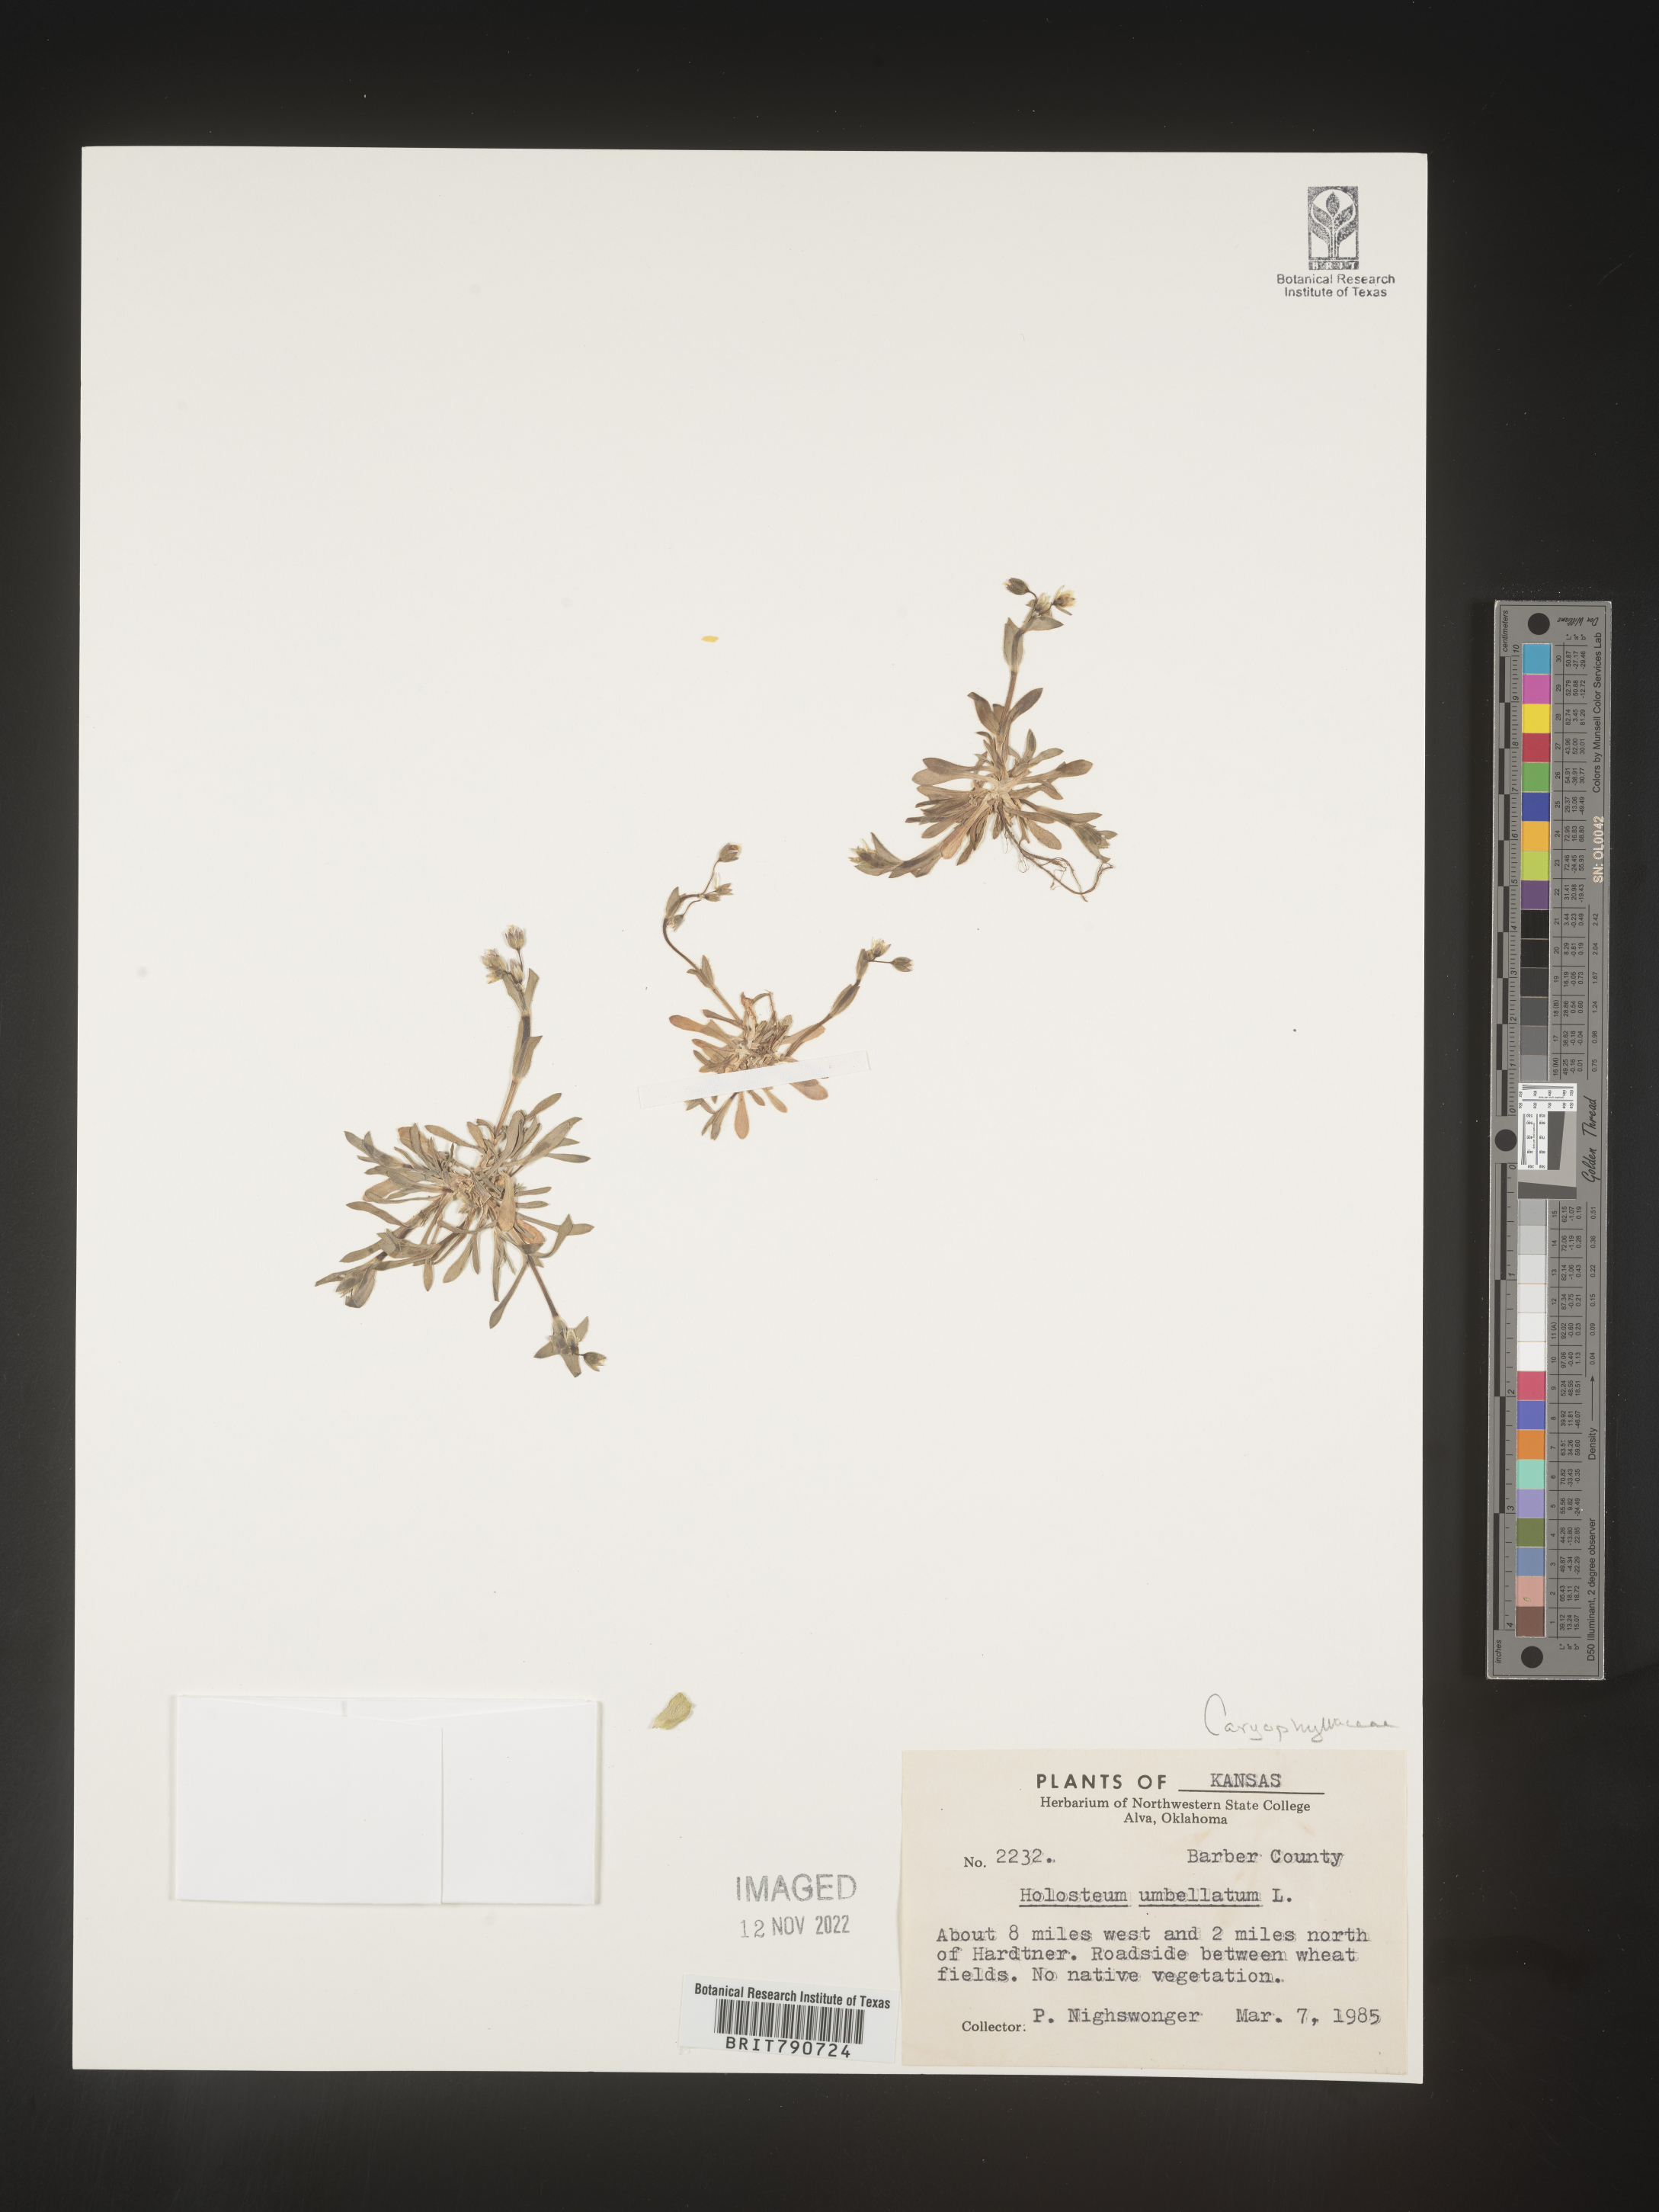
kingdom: Plantae
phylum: Tracheophyta
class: Magnoliopsida
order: Caryophyllales
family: Caryophyllaceae
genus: Holosteum
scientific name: Holosteum
